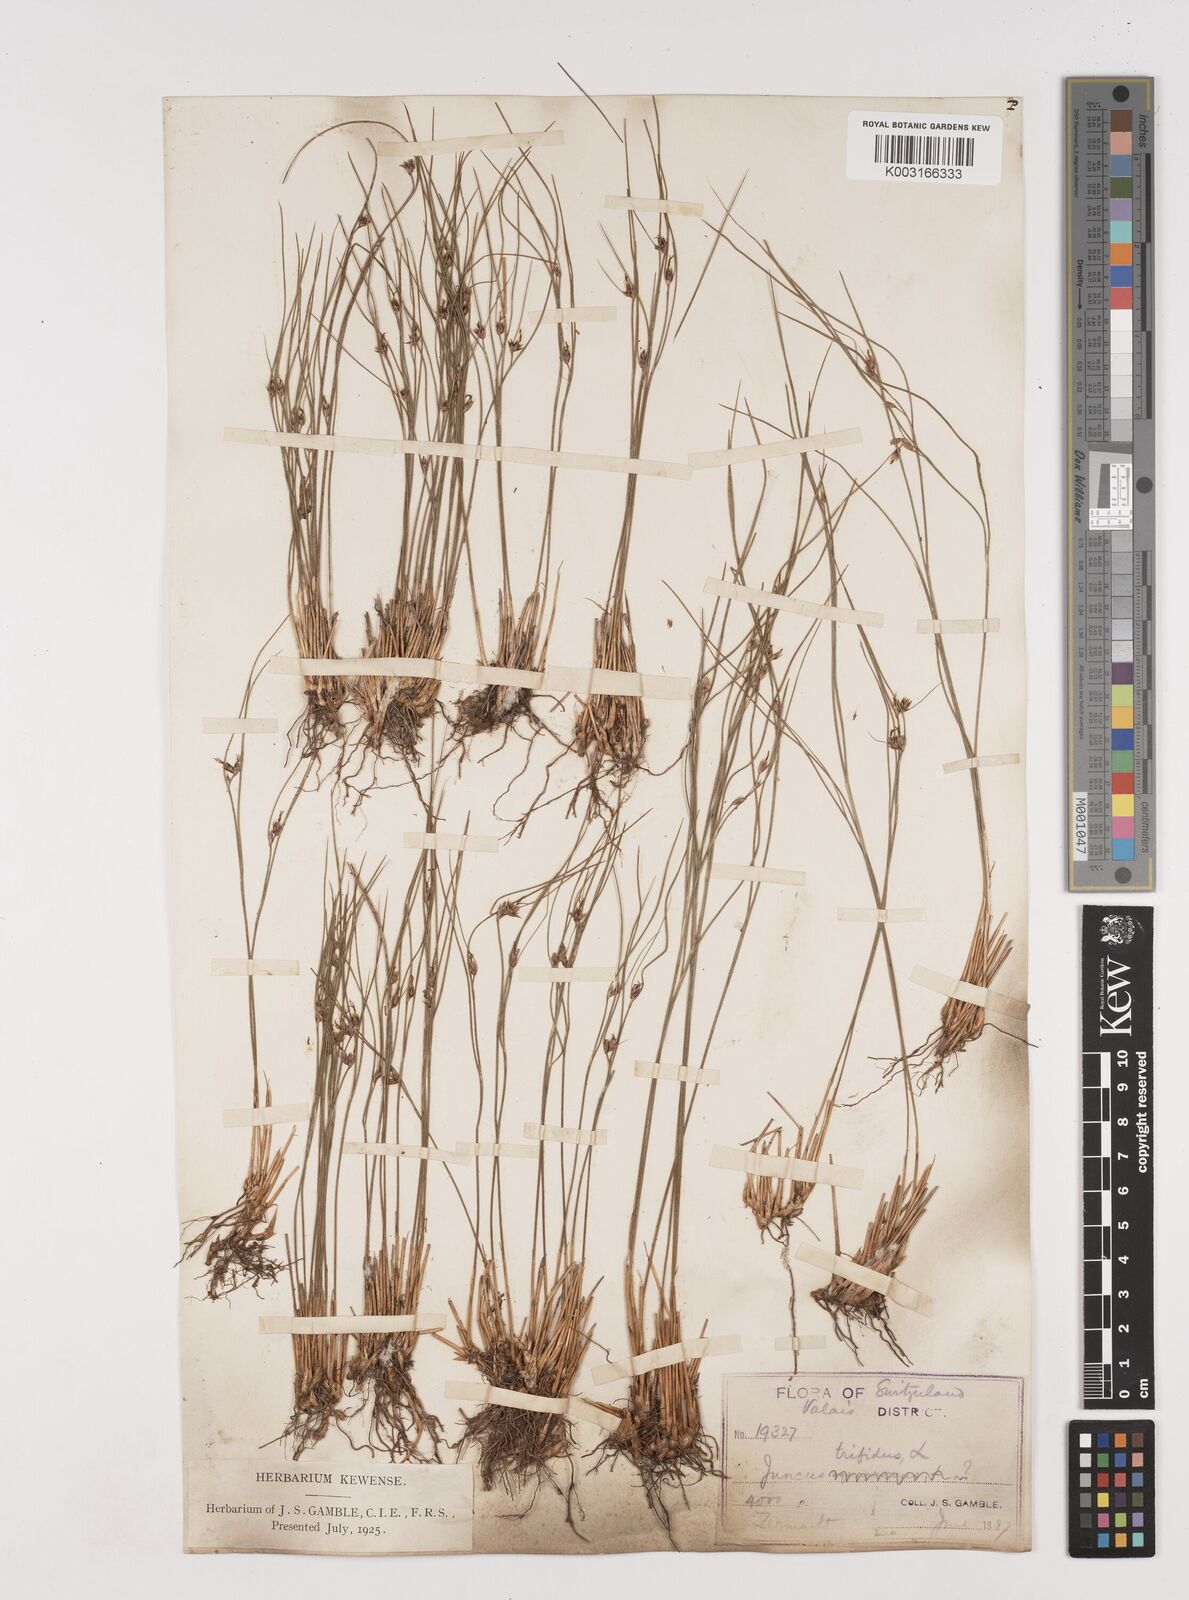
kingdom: Plantae
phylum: Tracheophyta
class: Liliopsida
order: Poales
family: Juncaceae
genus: Oreojuncus
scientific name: Oreojuncus trifidus
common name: Highland rush
